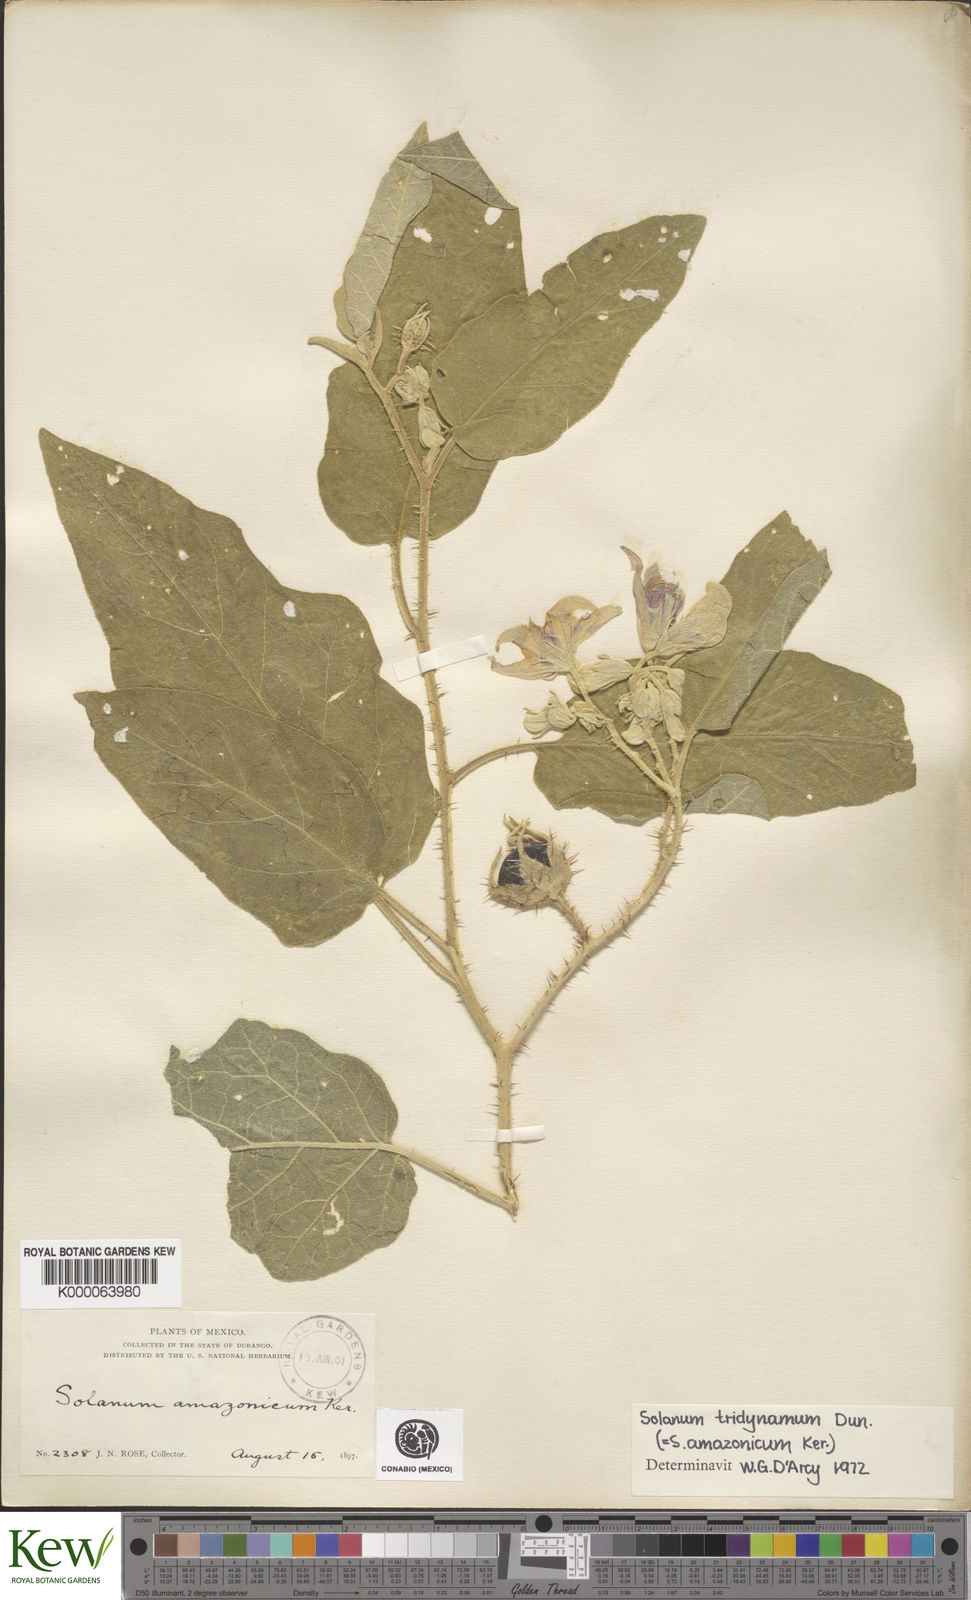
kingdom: Plantae
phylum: Tracheophyta
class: Magnoliopsida
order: Solanales
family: Solanaceae
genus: Solanum
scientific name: Solanum houstonii
